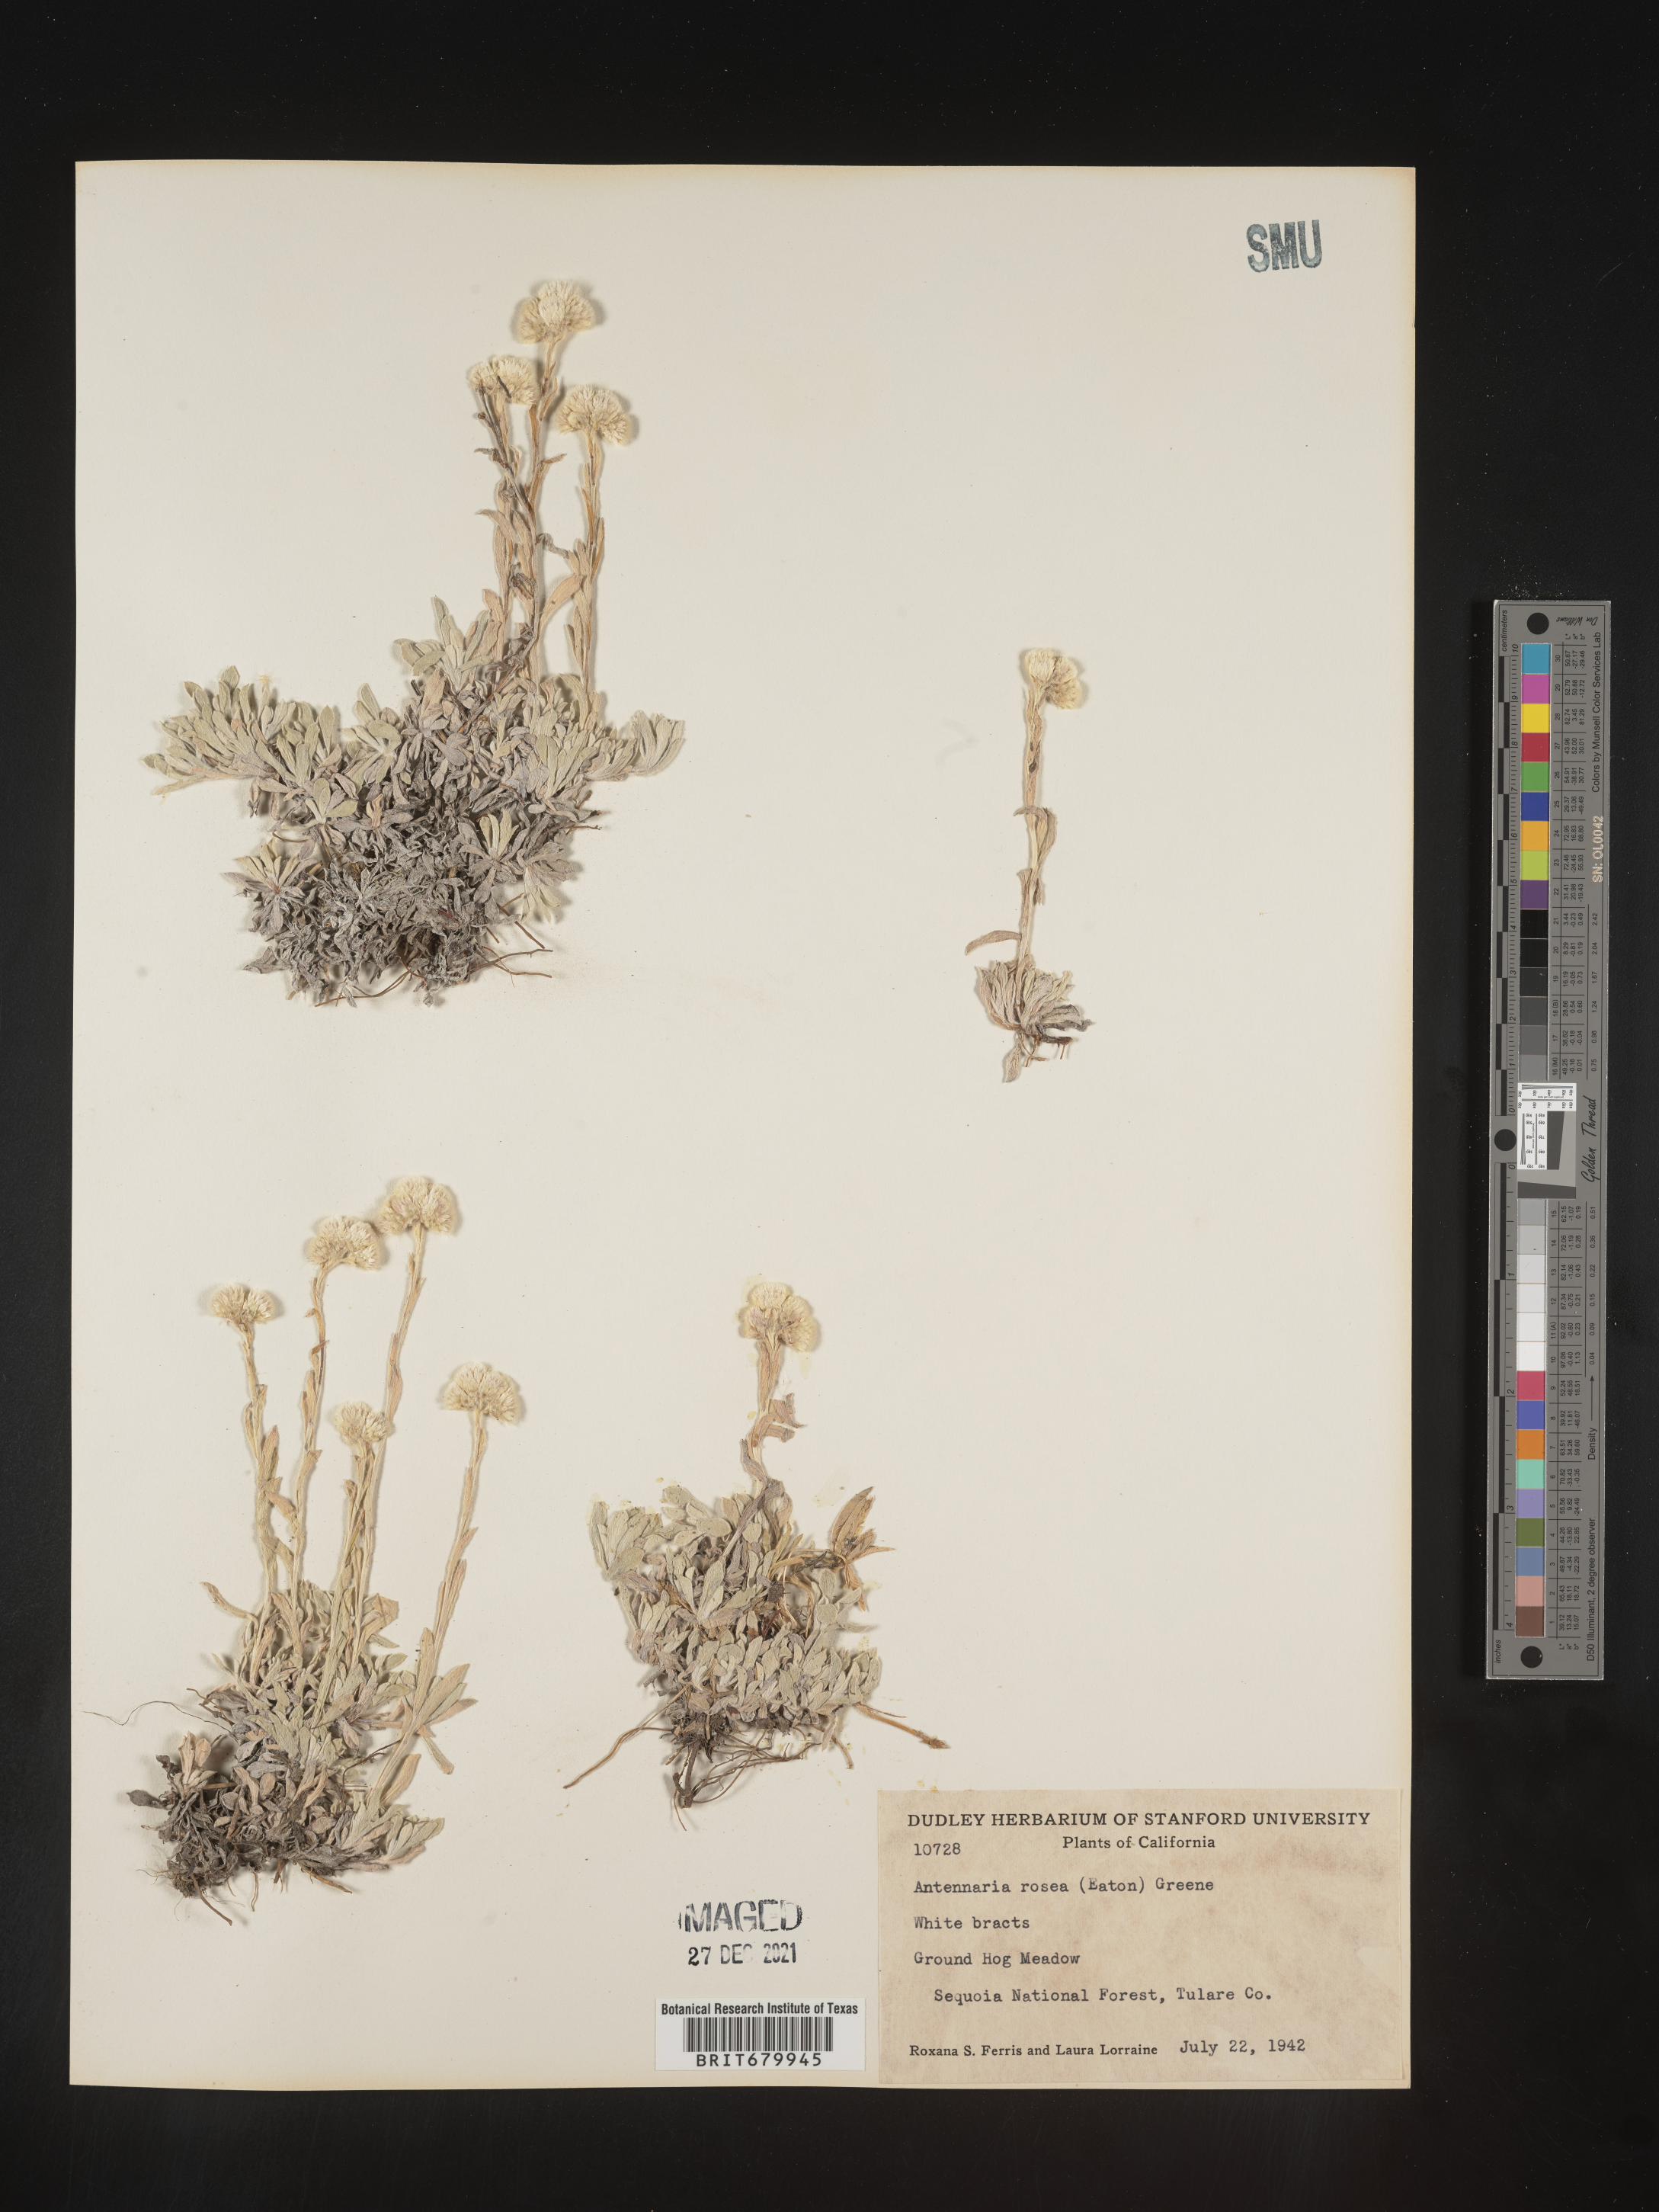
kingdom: Plantae
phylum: Tracheophyta
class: Magnoliopsida
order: Asterales
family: Asteraceae
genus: Antennaria
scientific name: Antennaria rosea
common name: Rosy pussytoes
